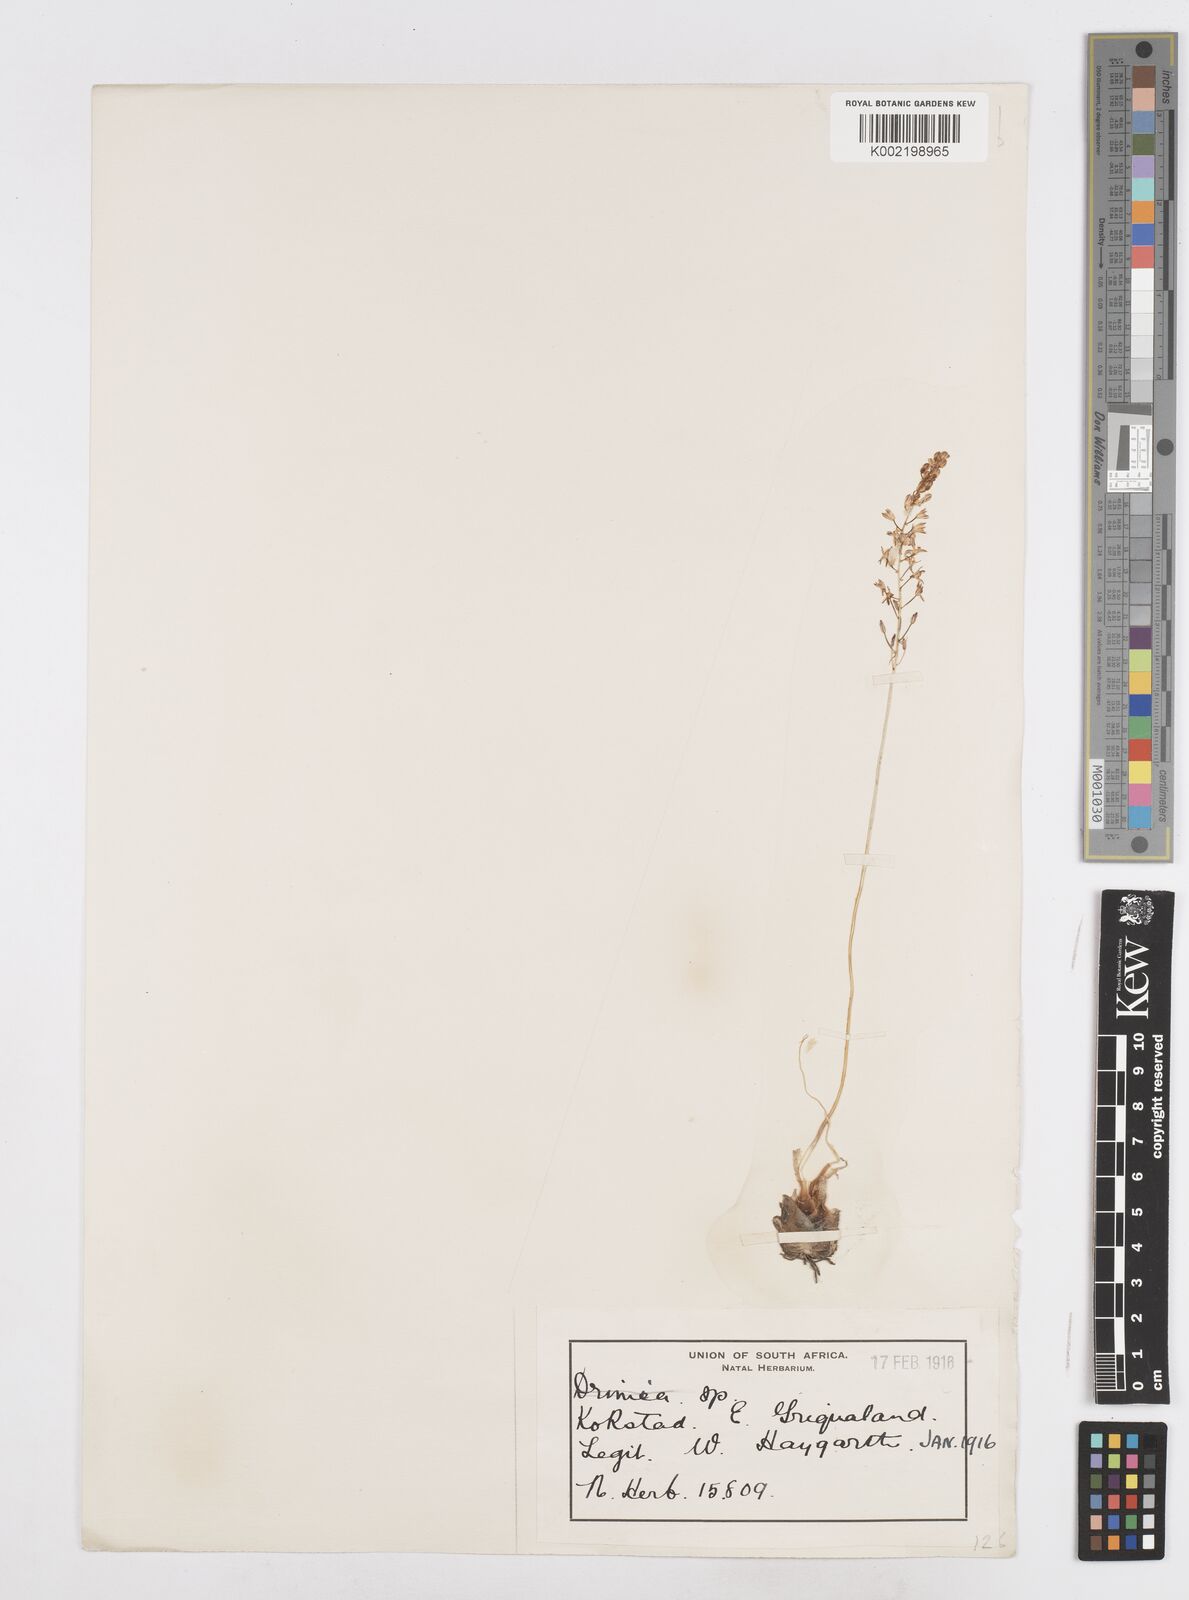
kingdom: Plantae
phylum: Tracheophyta
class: Liliopsida
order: Asparagales
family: Asparagaceae
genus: Drimia
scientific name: Drimia
